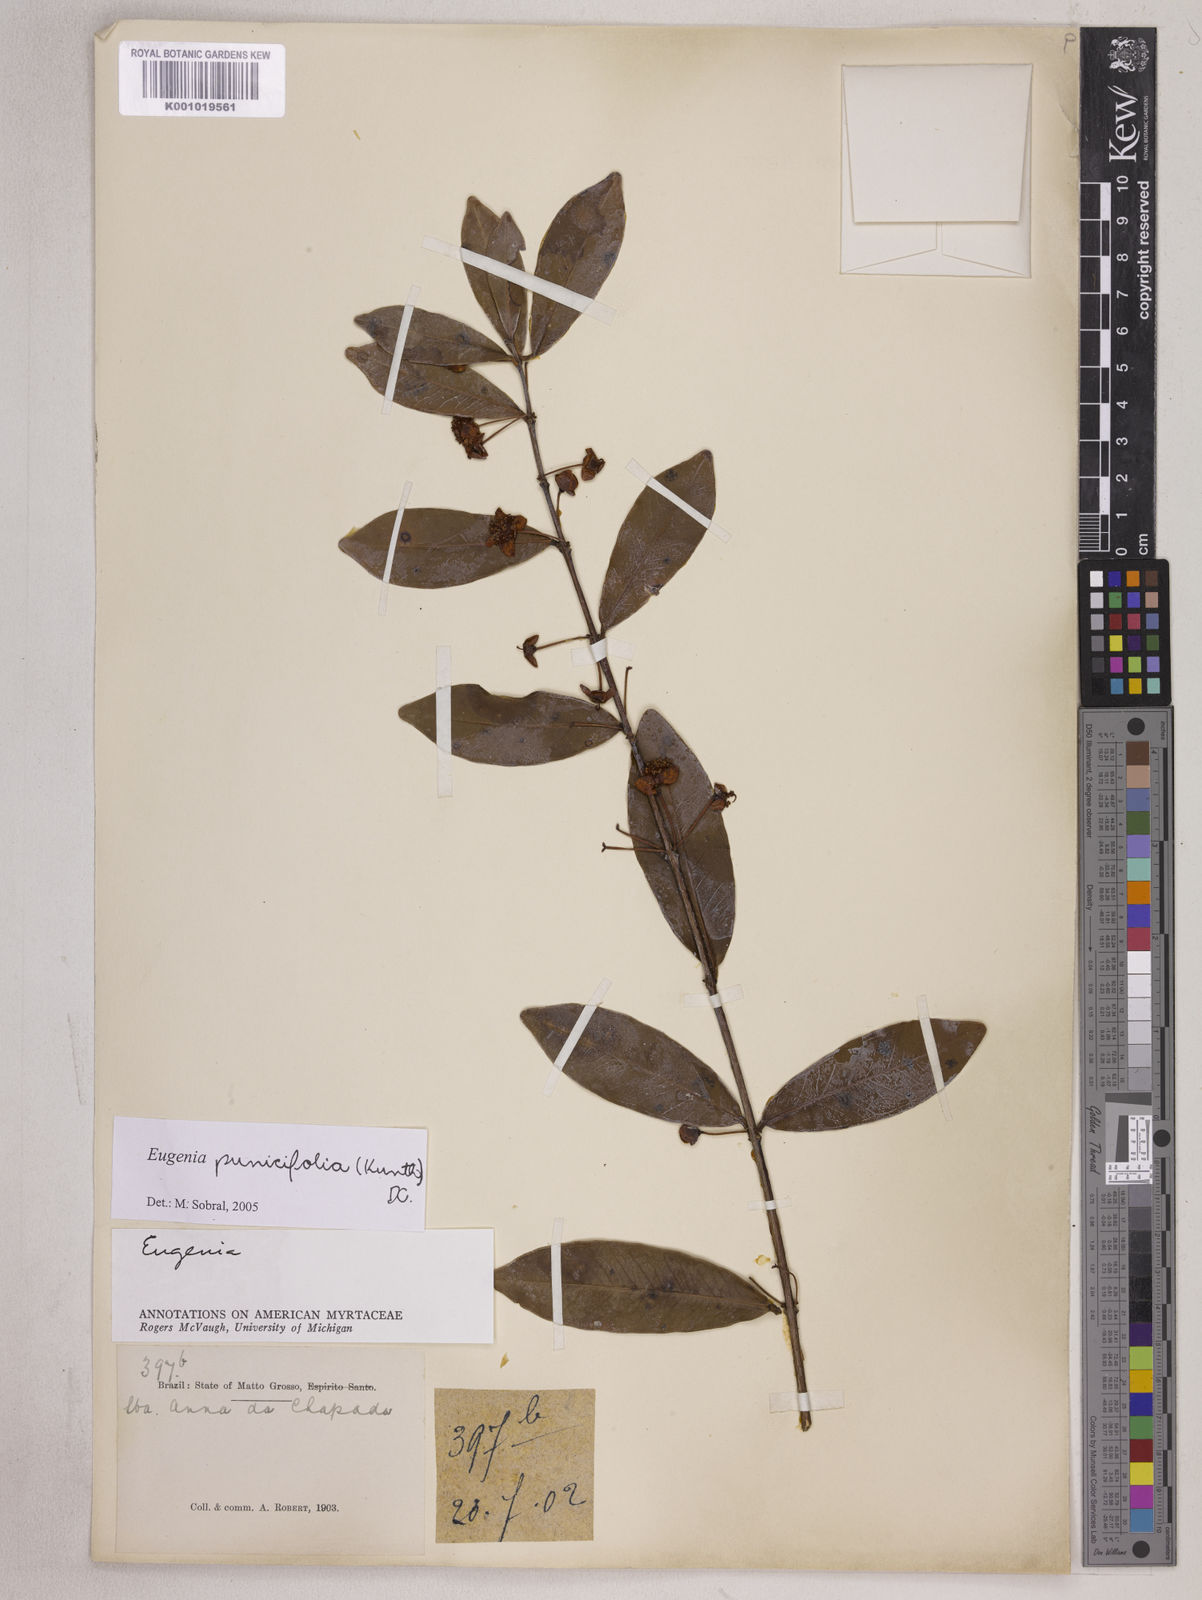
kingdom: Plantae
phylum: Tracheophyta
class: Magnoliopsida
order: Myrtales
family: Myrtaceae
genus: Eugenia
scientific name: Eugenia punicifolia
